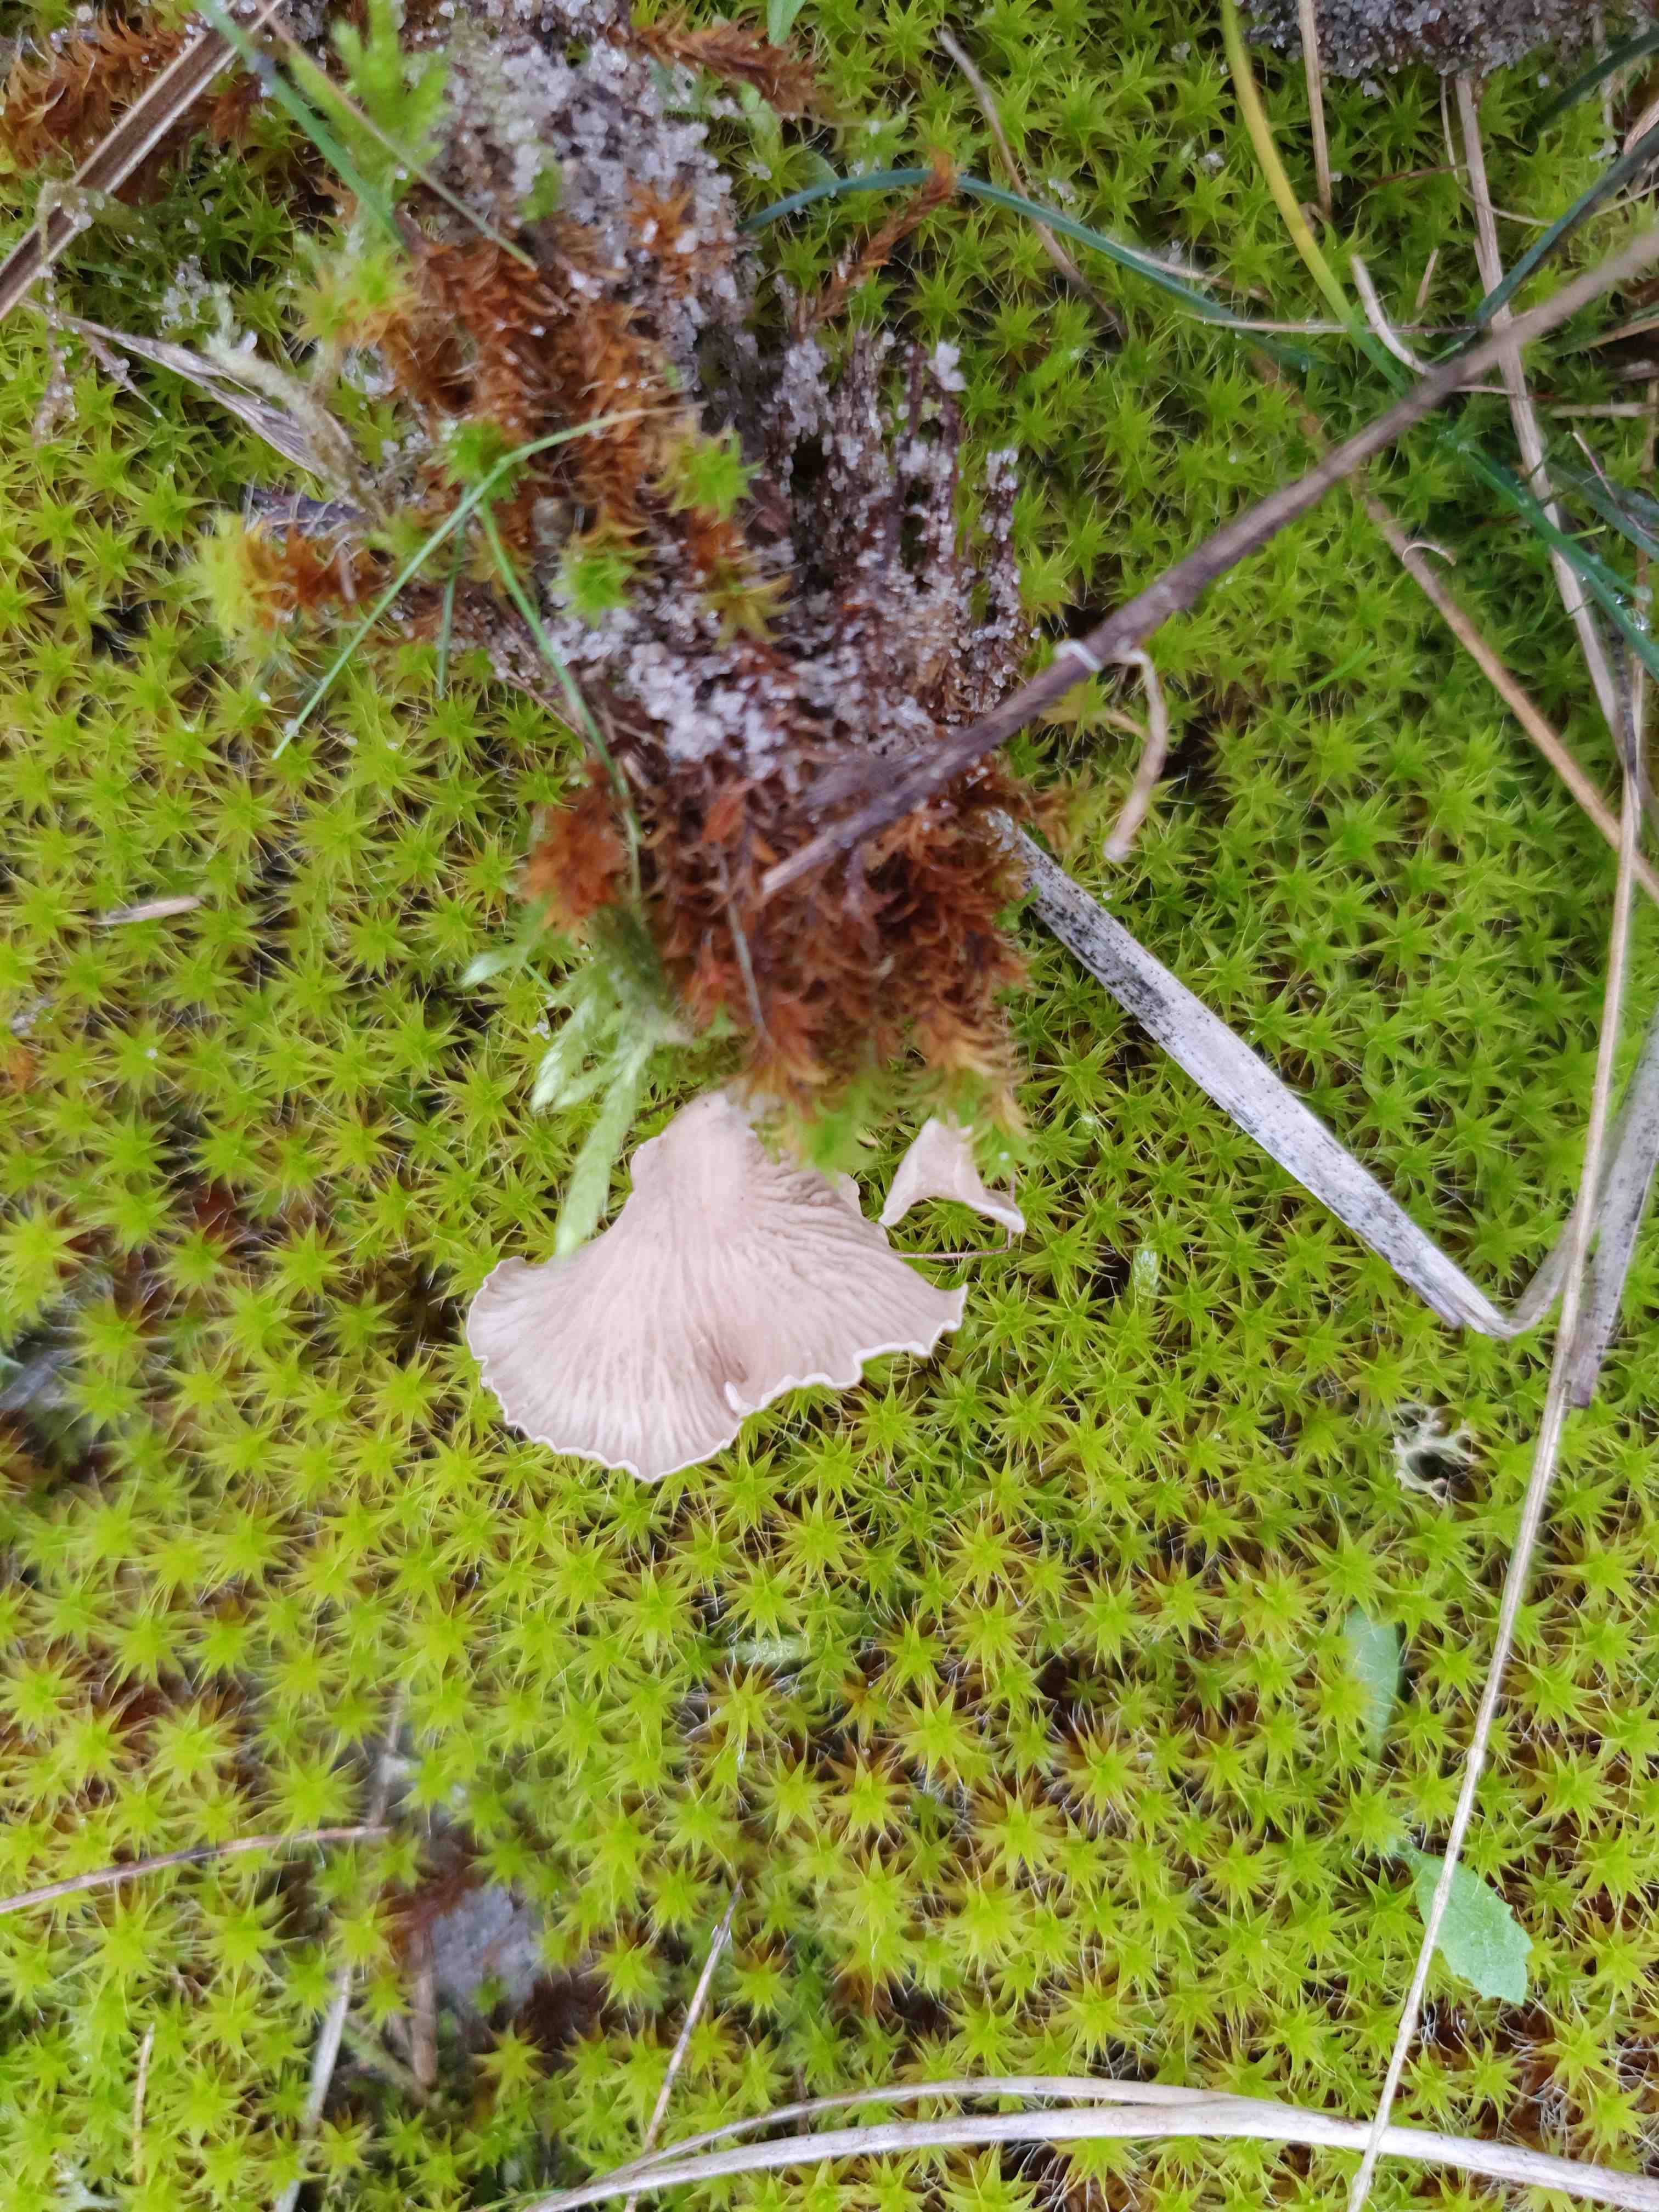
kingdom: Fungi
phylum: Basidiomycota
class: Agaricomycetes
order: Agaricales
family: Hygrophoraceae
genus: Arrhenia
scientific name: Arrhenia spathulata
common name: skæv fontænehat
